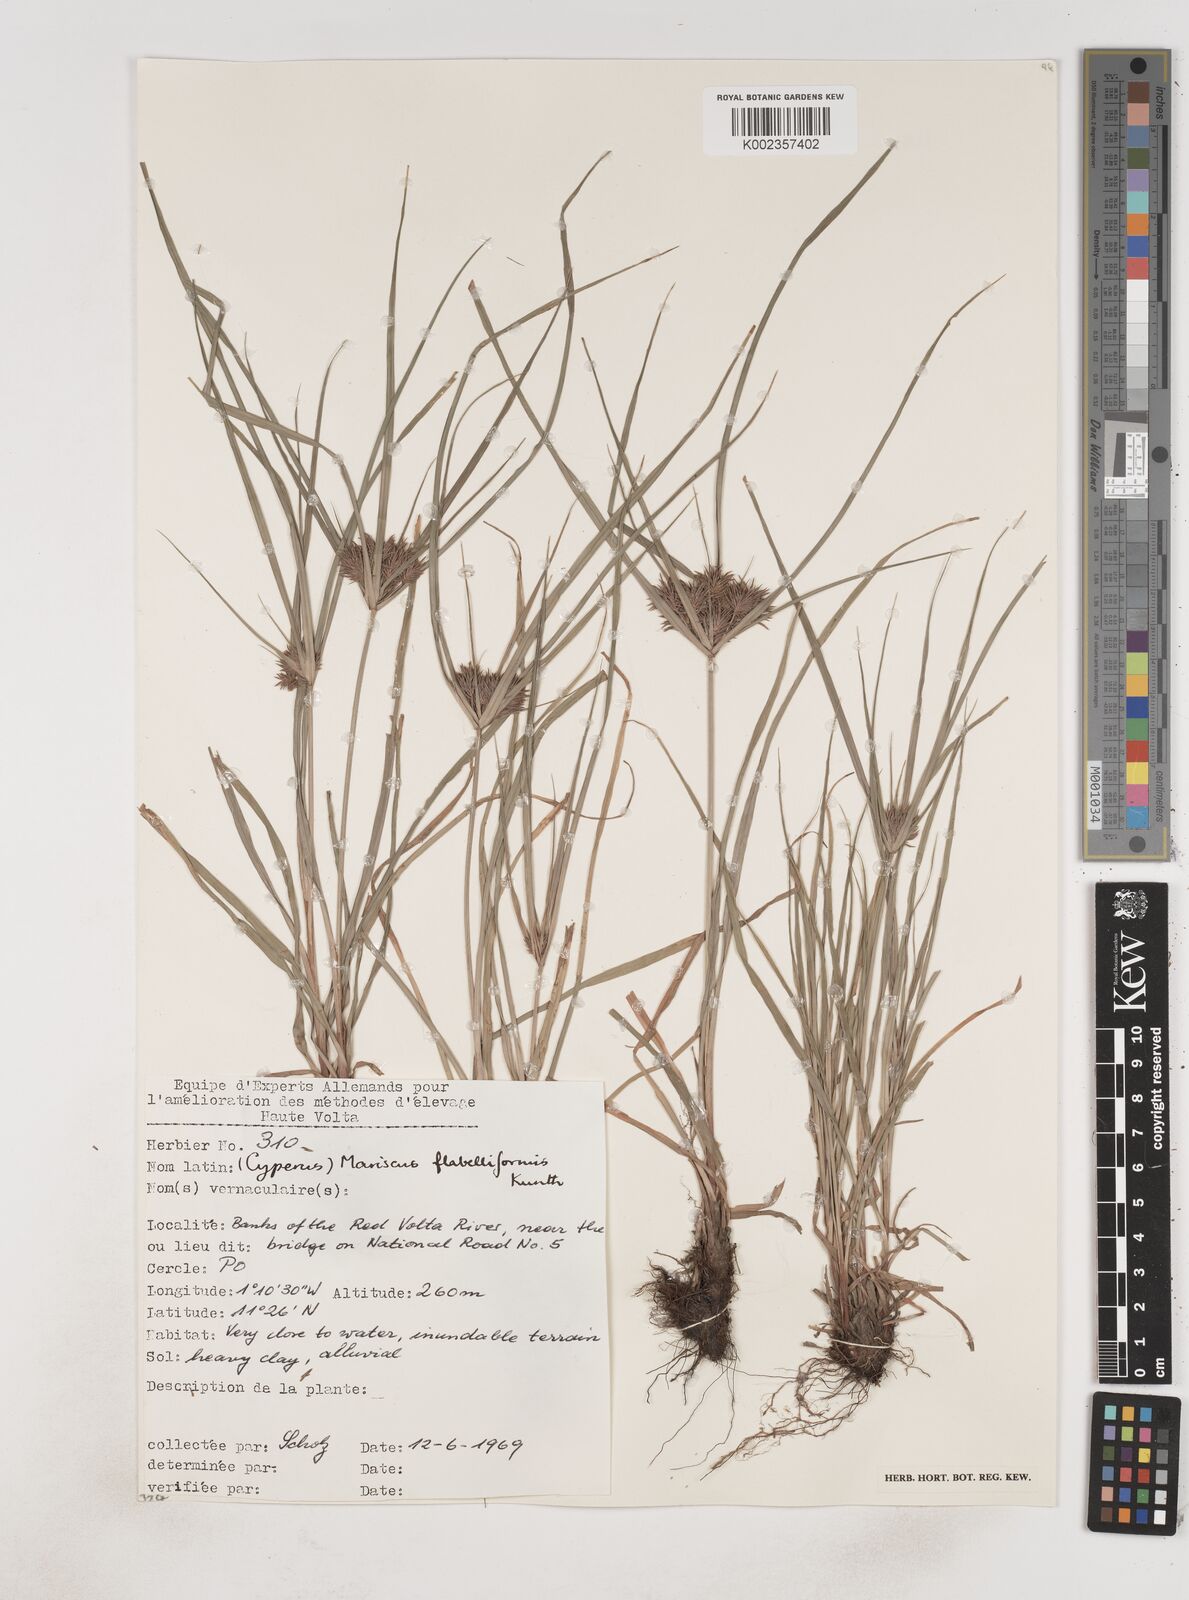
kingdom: Plantae
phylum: Tracheophyta
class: Liliopsida
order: Poales
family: Cyperaceae
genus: Cyperus
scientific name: Cyperus tenuis
